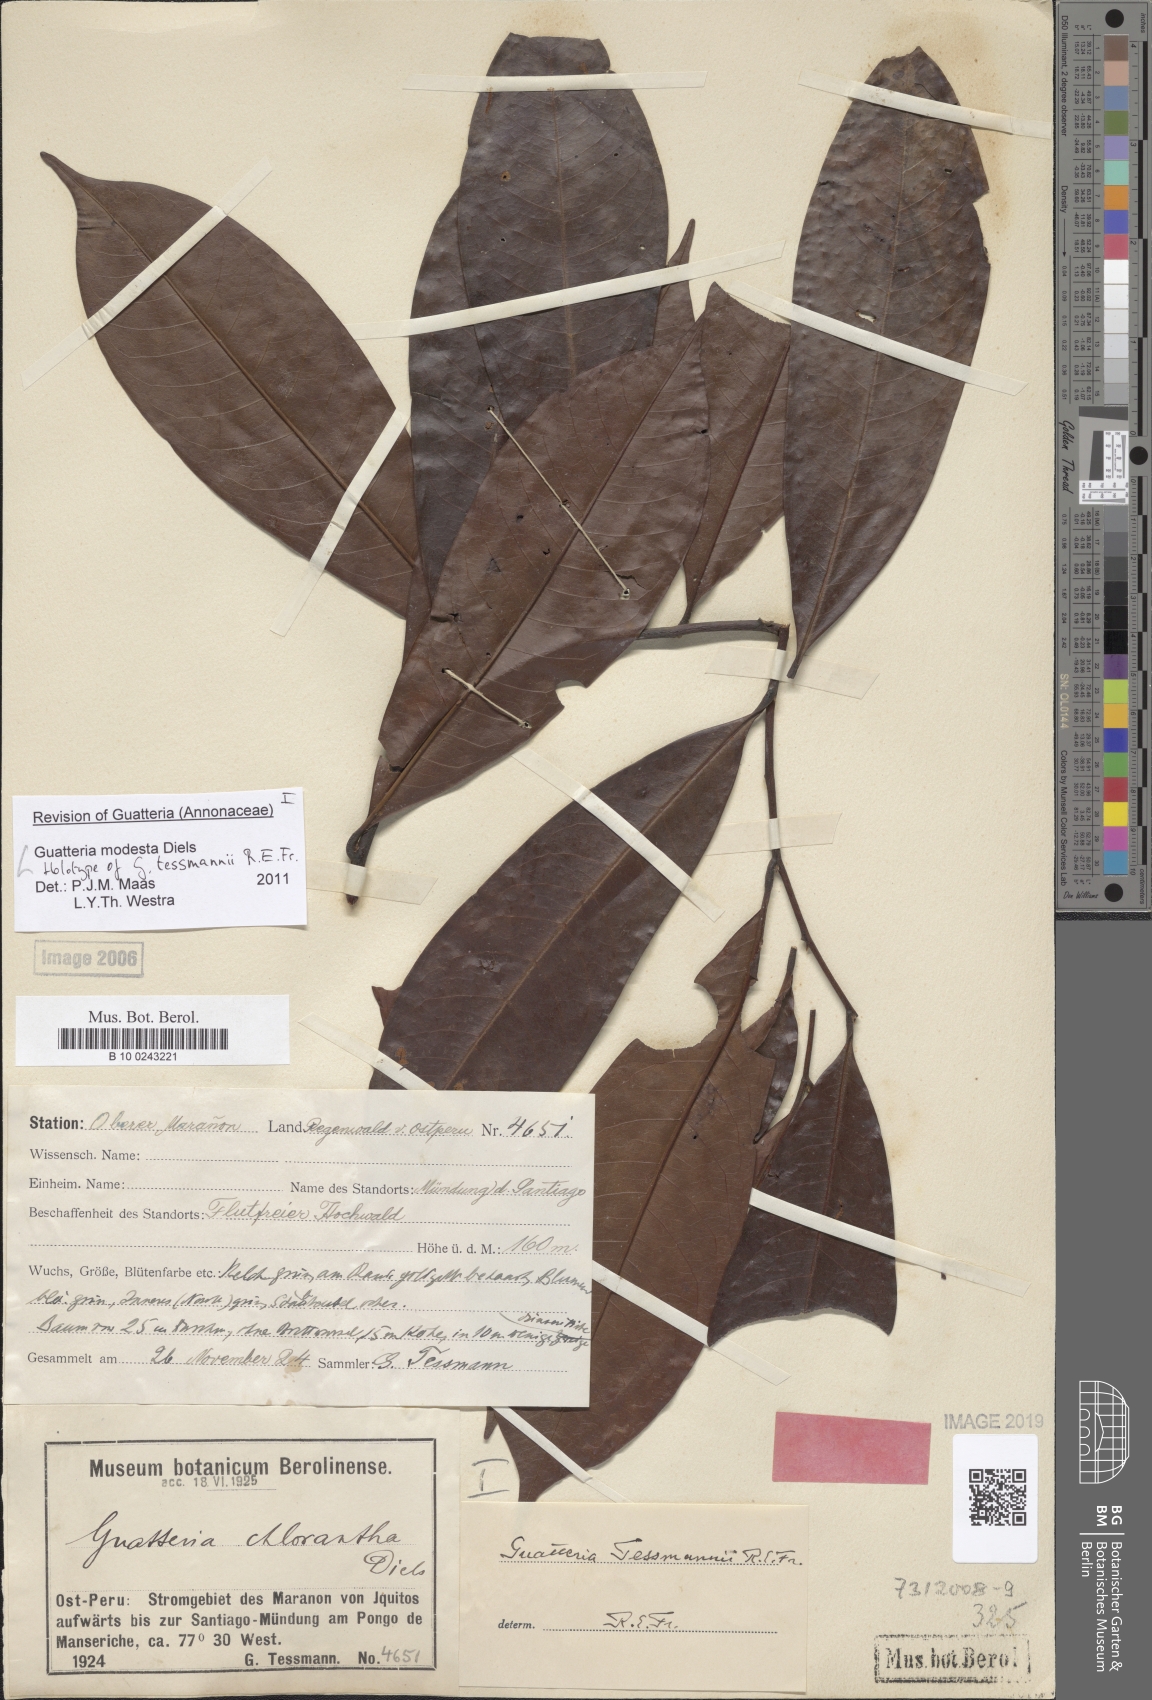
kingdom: Plantae
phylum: Tracheophyta
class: Magnoliopsida
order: Magnoliales
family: Annonaceae
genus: Guatteria
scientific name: Guatteria modesta
